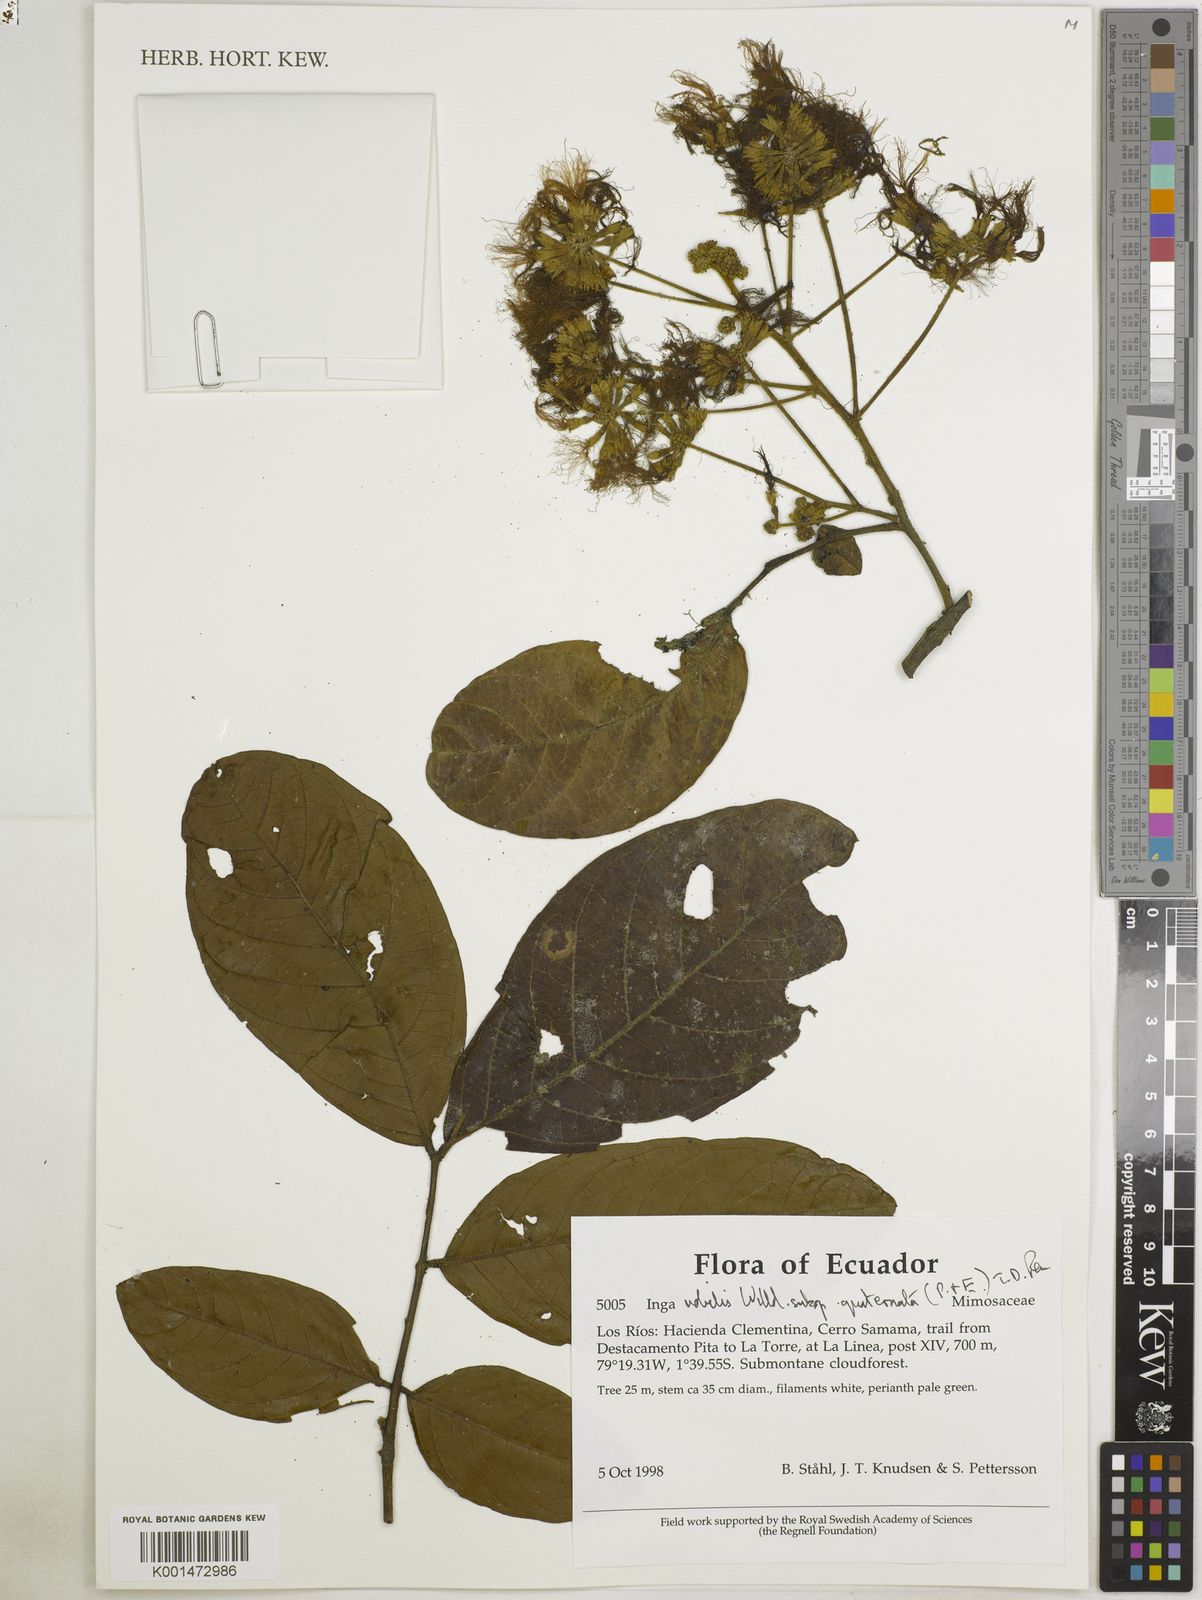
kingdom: Plantae
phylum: Tracheophyta
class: Magnoliopsida
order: Fabales
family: Fabaceae
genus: Inga
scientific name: Inga nobilis
